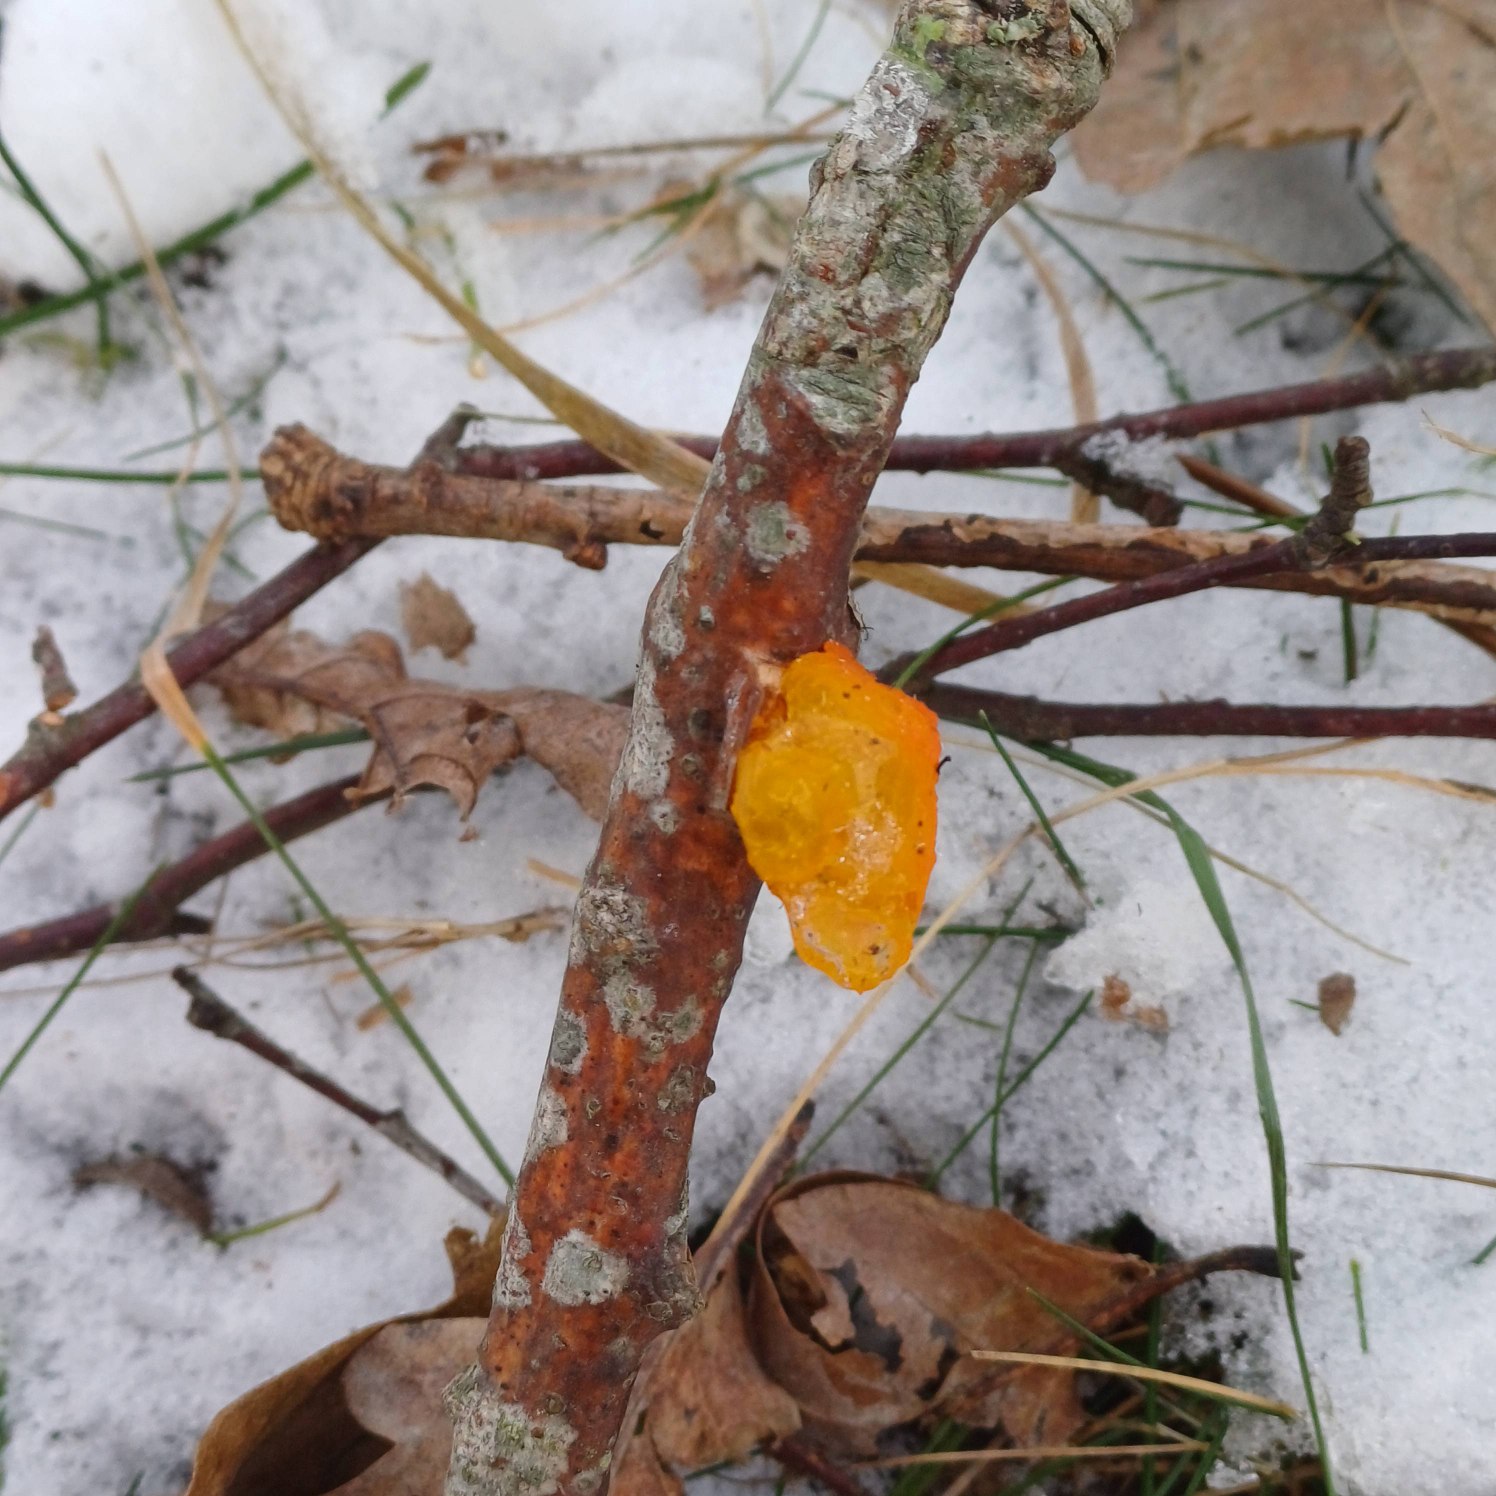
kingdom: Fungi
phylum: Basidiomycota
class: Tremellomycetes
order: Tremellales
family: Tremellaceae
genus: Tremella
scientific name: Tremella mesenterica
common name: Gul bævresvamp
